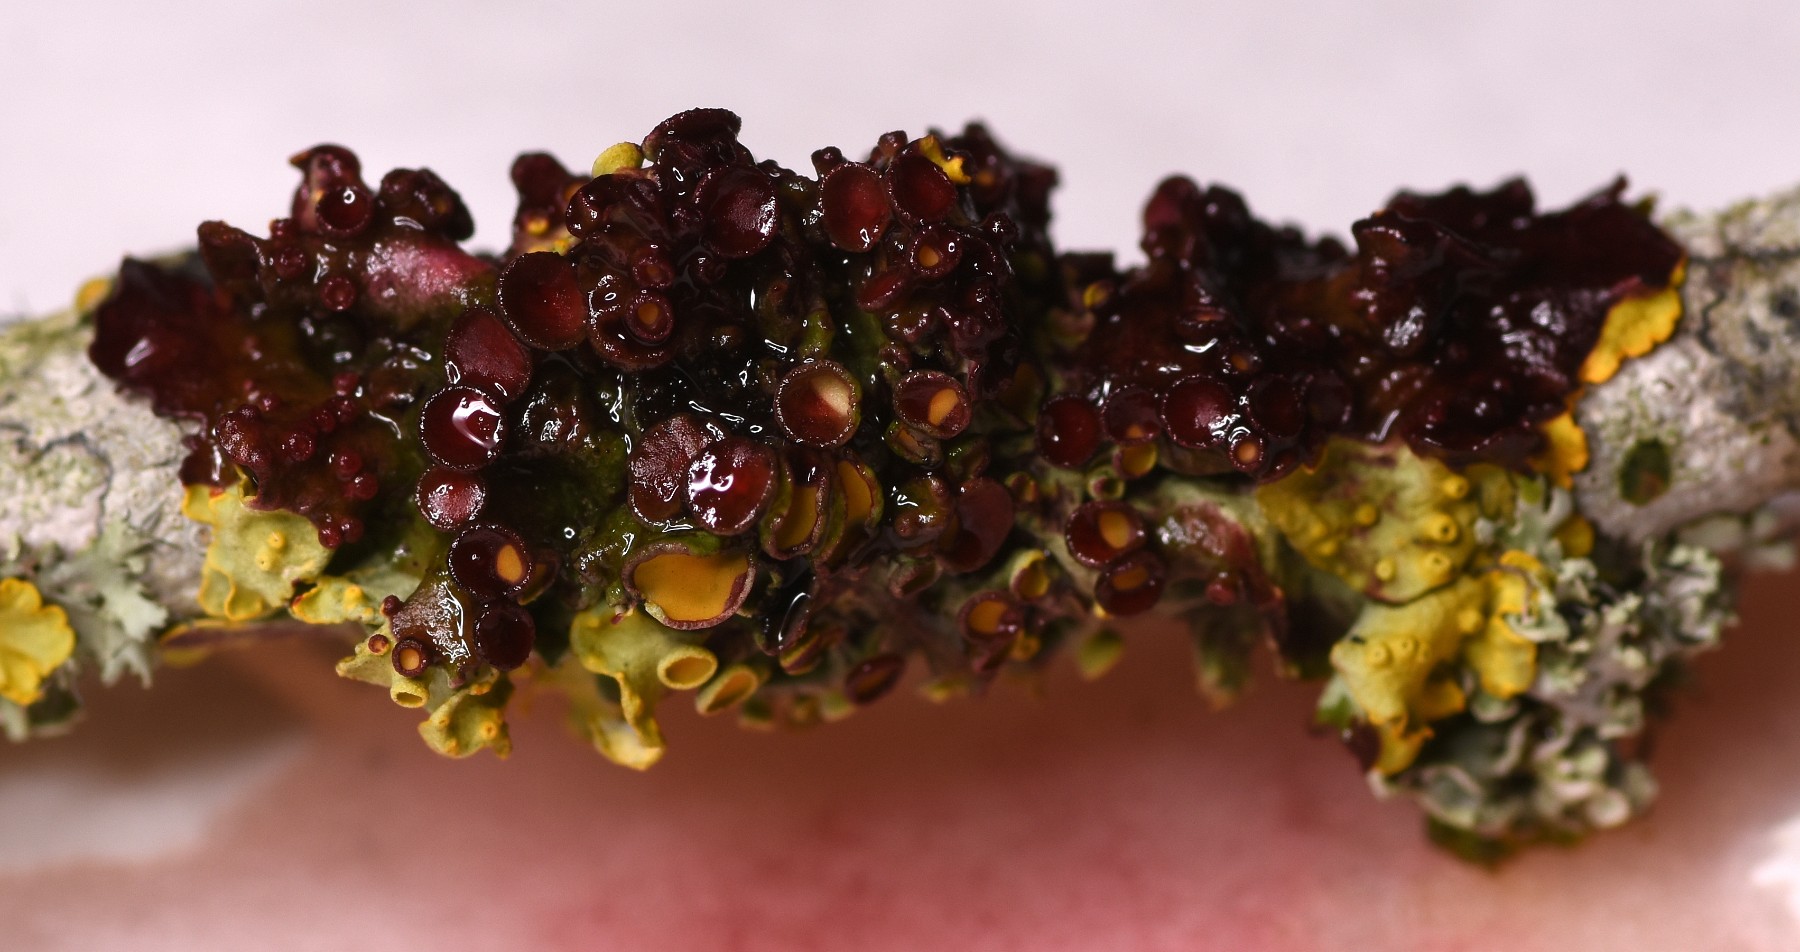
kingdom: Fungi
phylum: Ascomycota
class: Lecanoromycetes
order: Teloschistales
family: Teloschistaceae
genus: Xanthoria
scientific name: Xanthoria parietina
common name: almindelig væggelav
